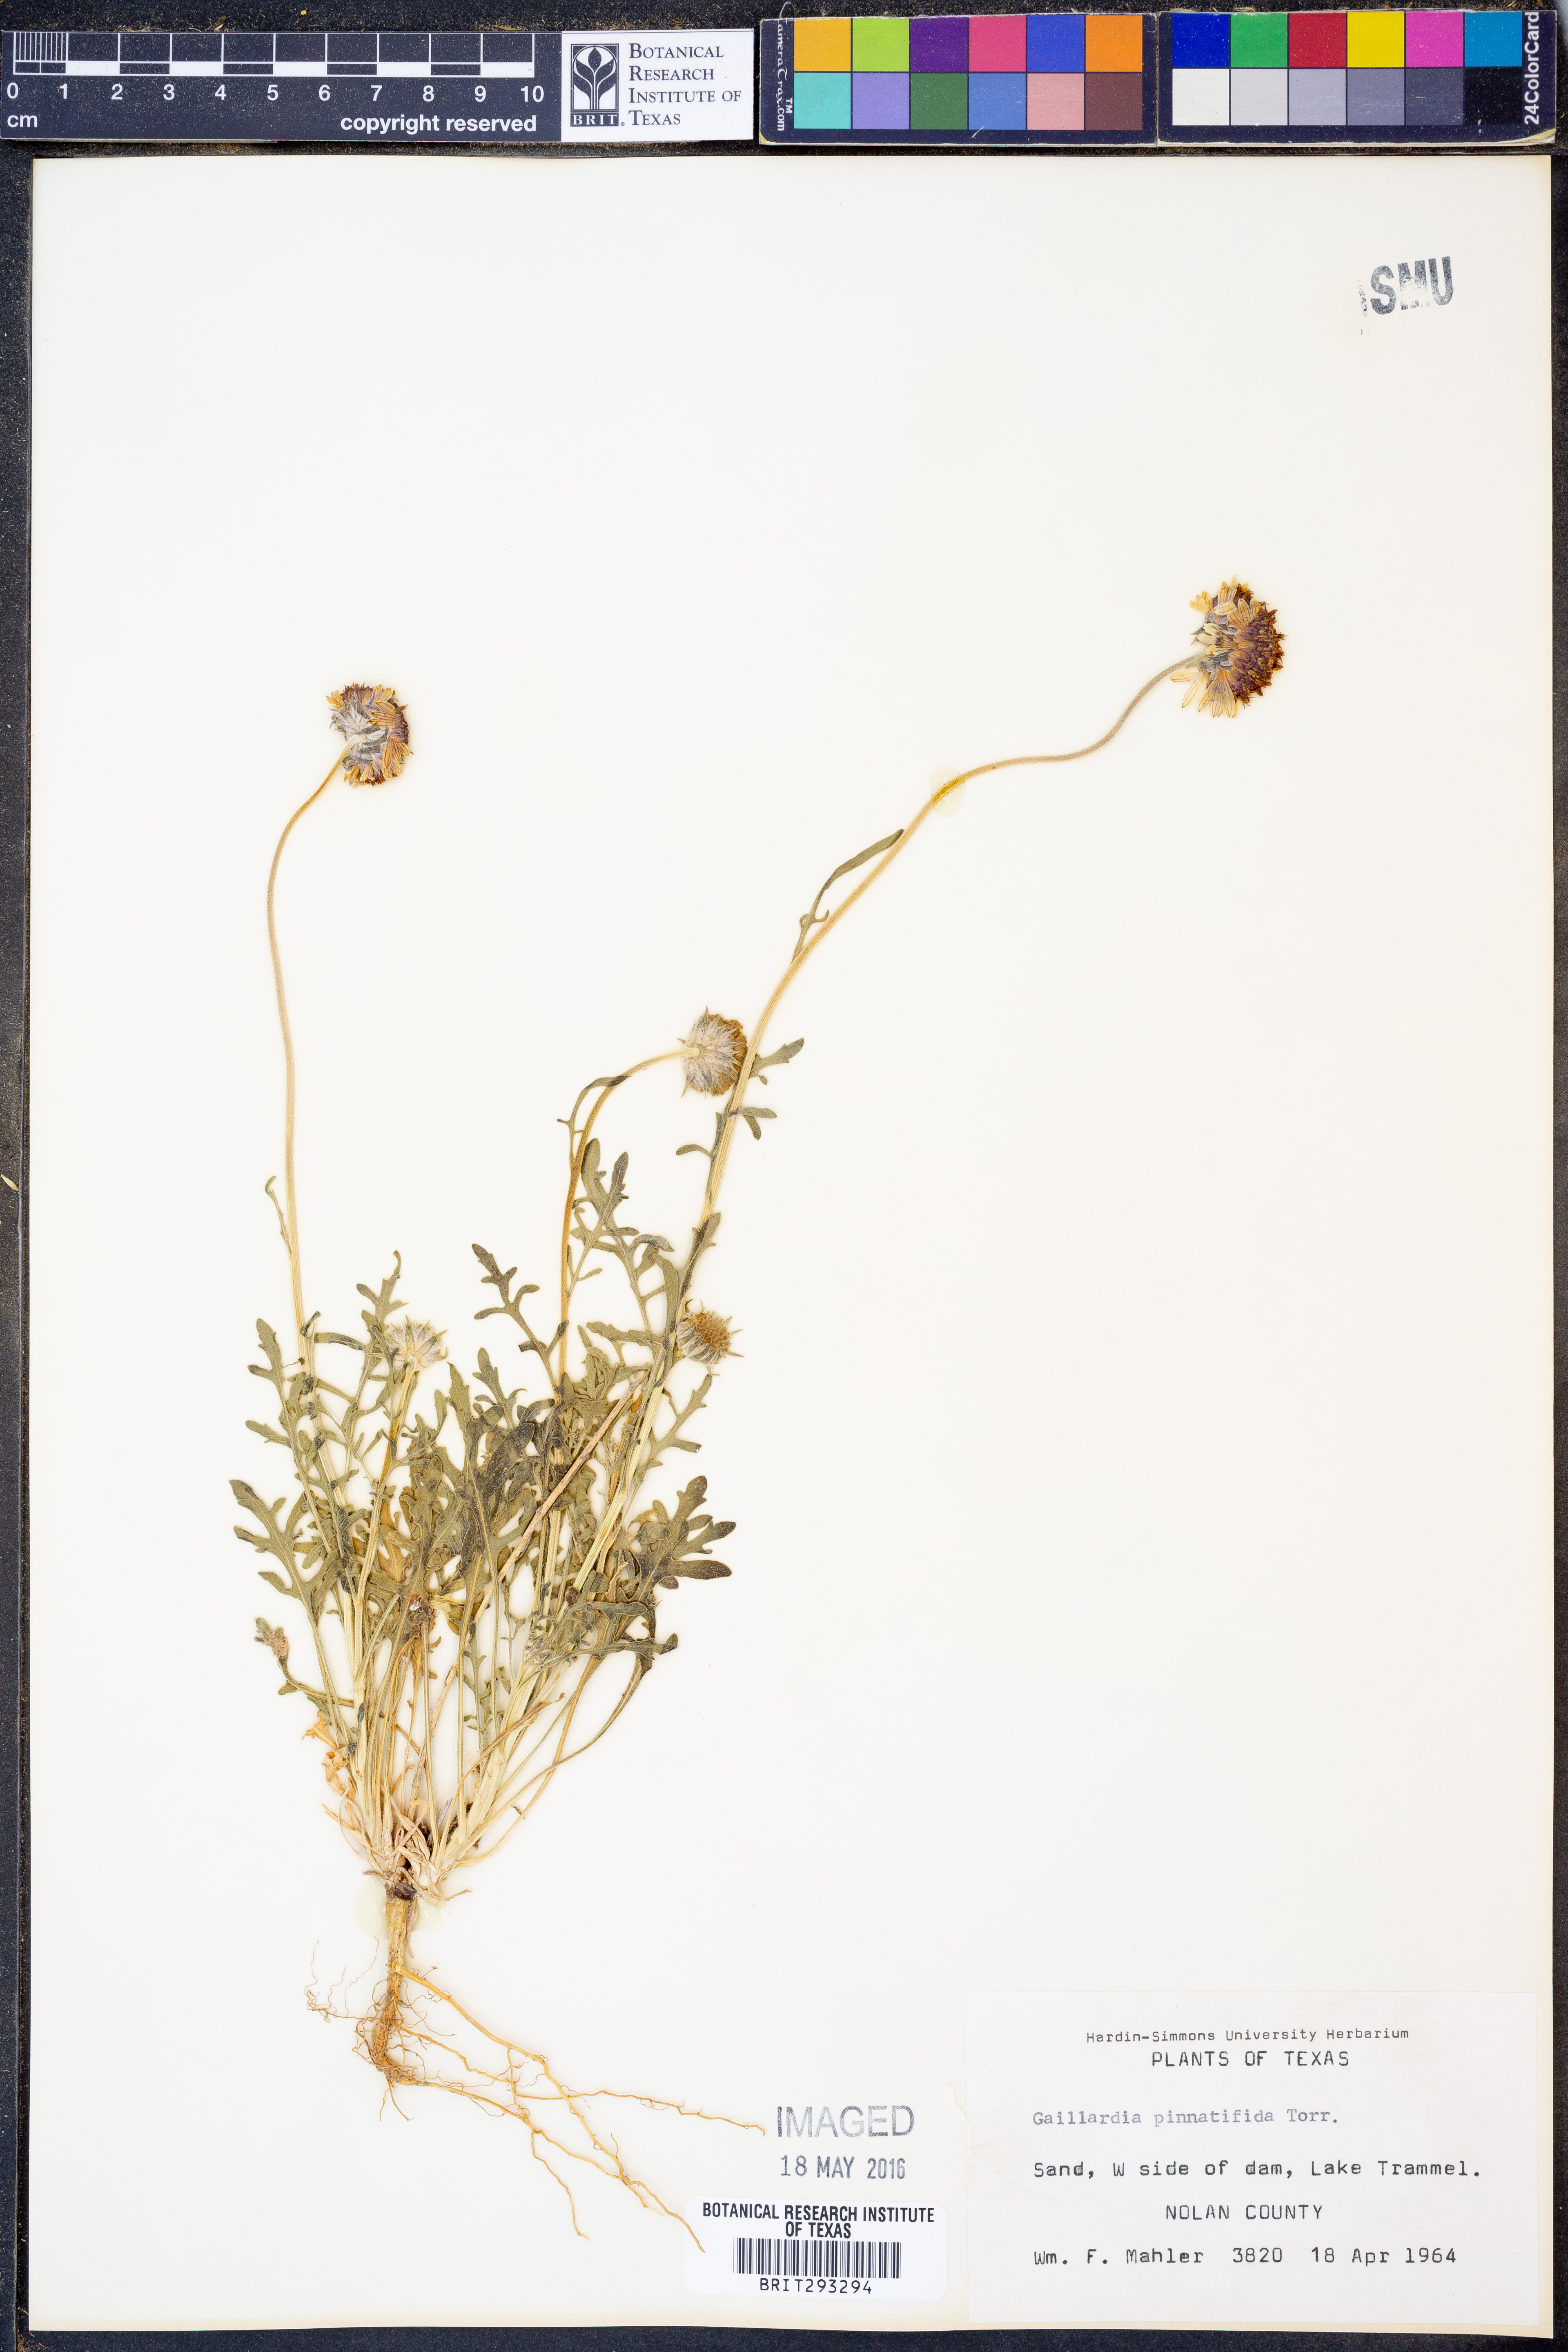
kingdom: Plantae
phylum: Tracheophyta
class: Magnoliopsida
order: Asterales
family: Asteraceae
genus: Gaillardia
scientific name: Gaillardia pinnatifida
